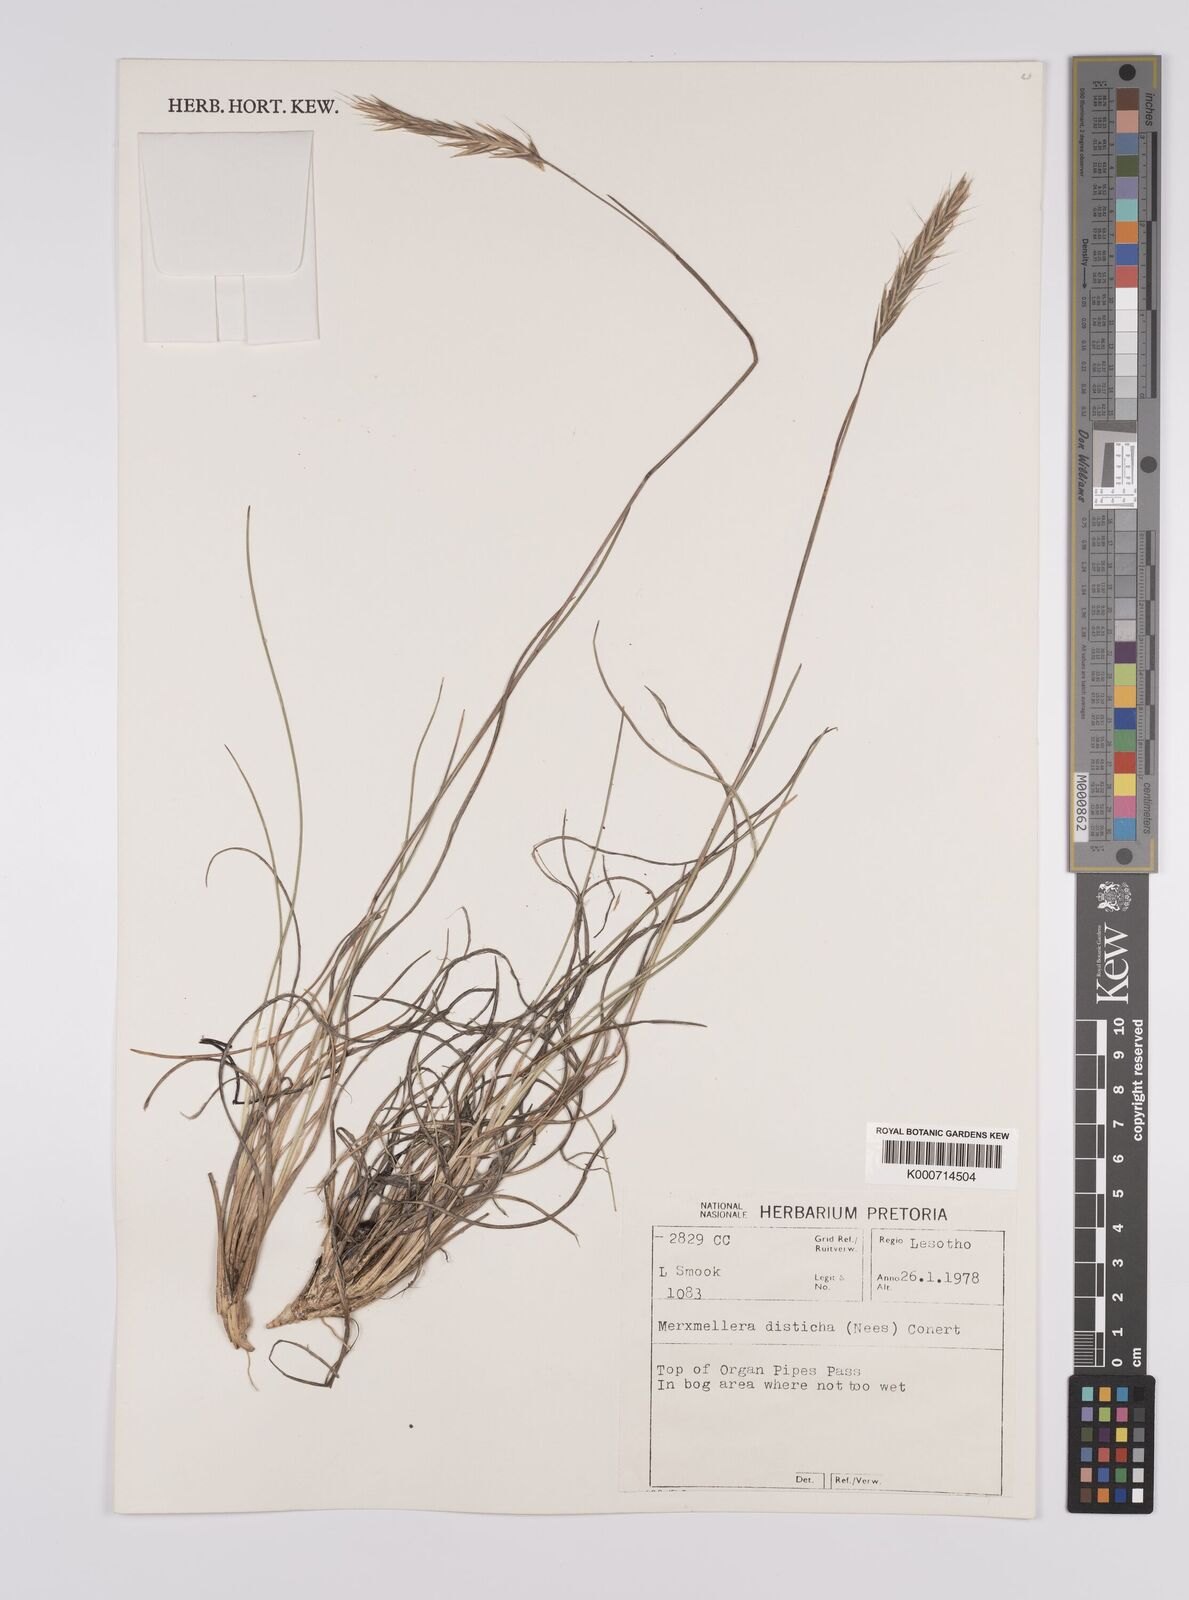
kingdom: Plantae
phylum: Tracheophyta
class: Liliopsida
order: Poales
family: Poaceae
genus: Tenaxia
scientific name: Tenaxia disticha
